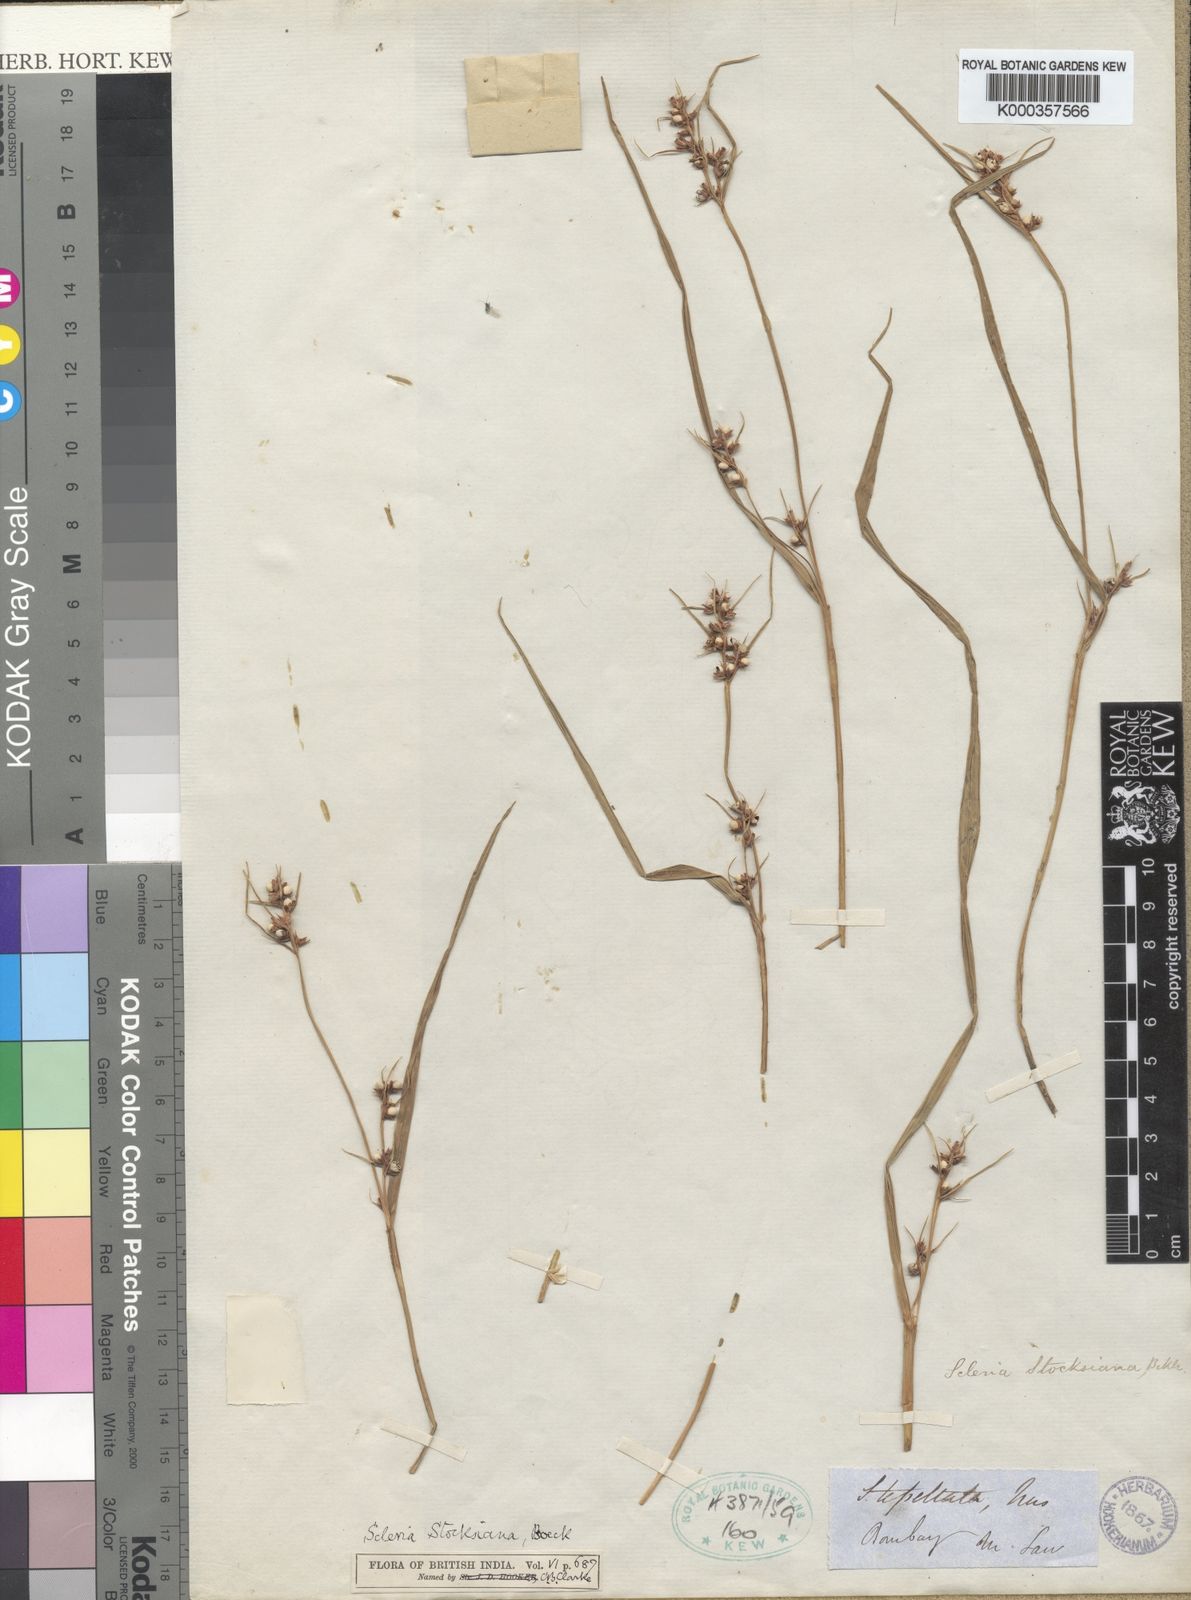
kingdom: Plantae
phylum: Tracheophyta
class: Liliopsida
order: Poales
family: Cyperaceae
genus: Scleria
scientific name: Scleria stocksiana
